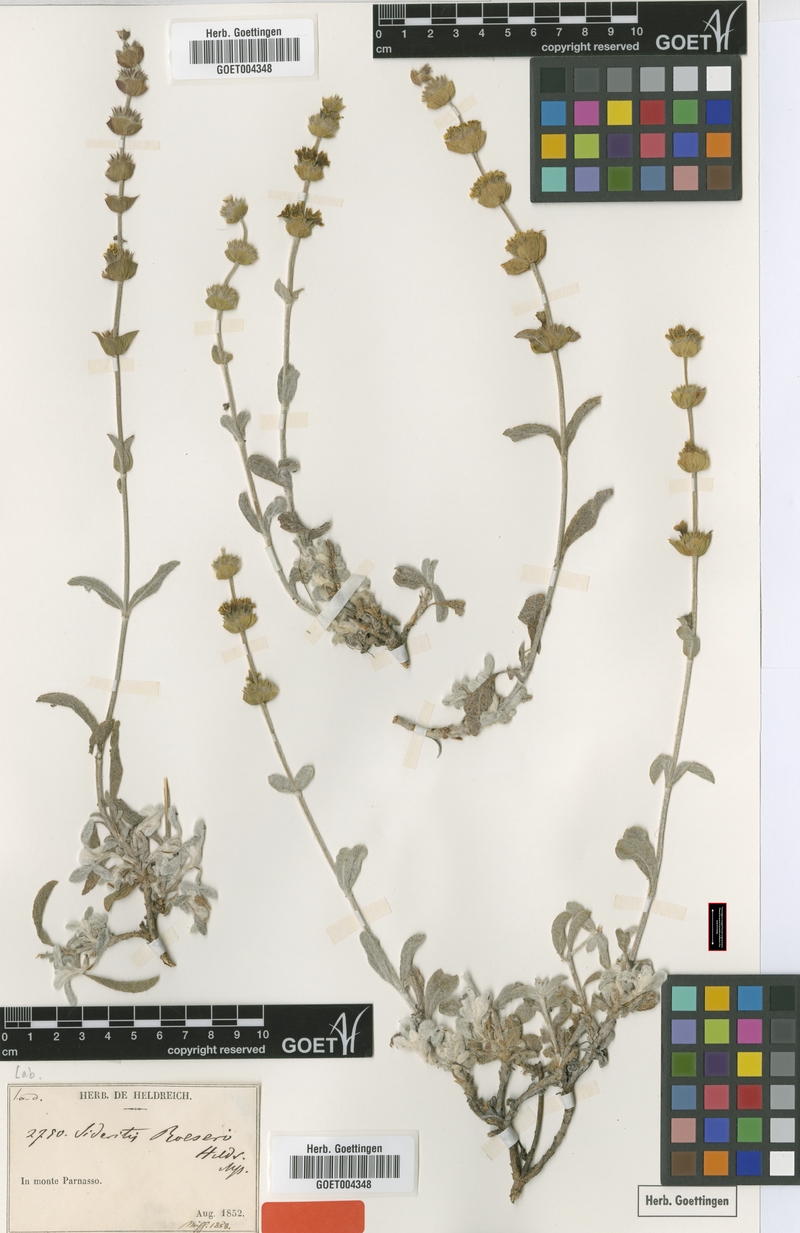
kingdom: Plantae
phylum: Tracheophyta
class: Magnoliopsida
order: Lamiales
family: Lamiaceae
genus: Sideritis
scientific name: Sideritis raeseri
